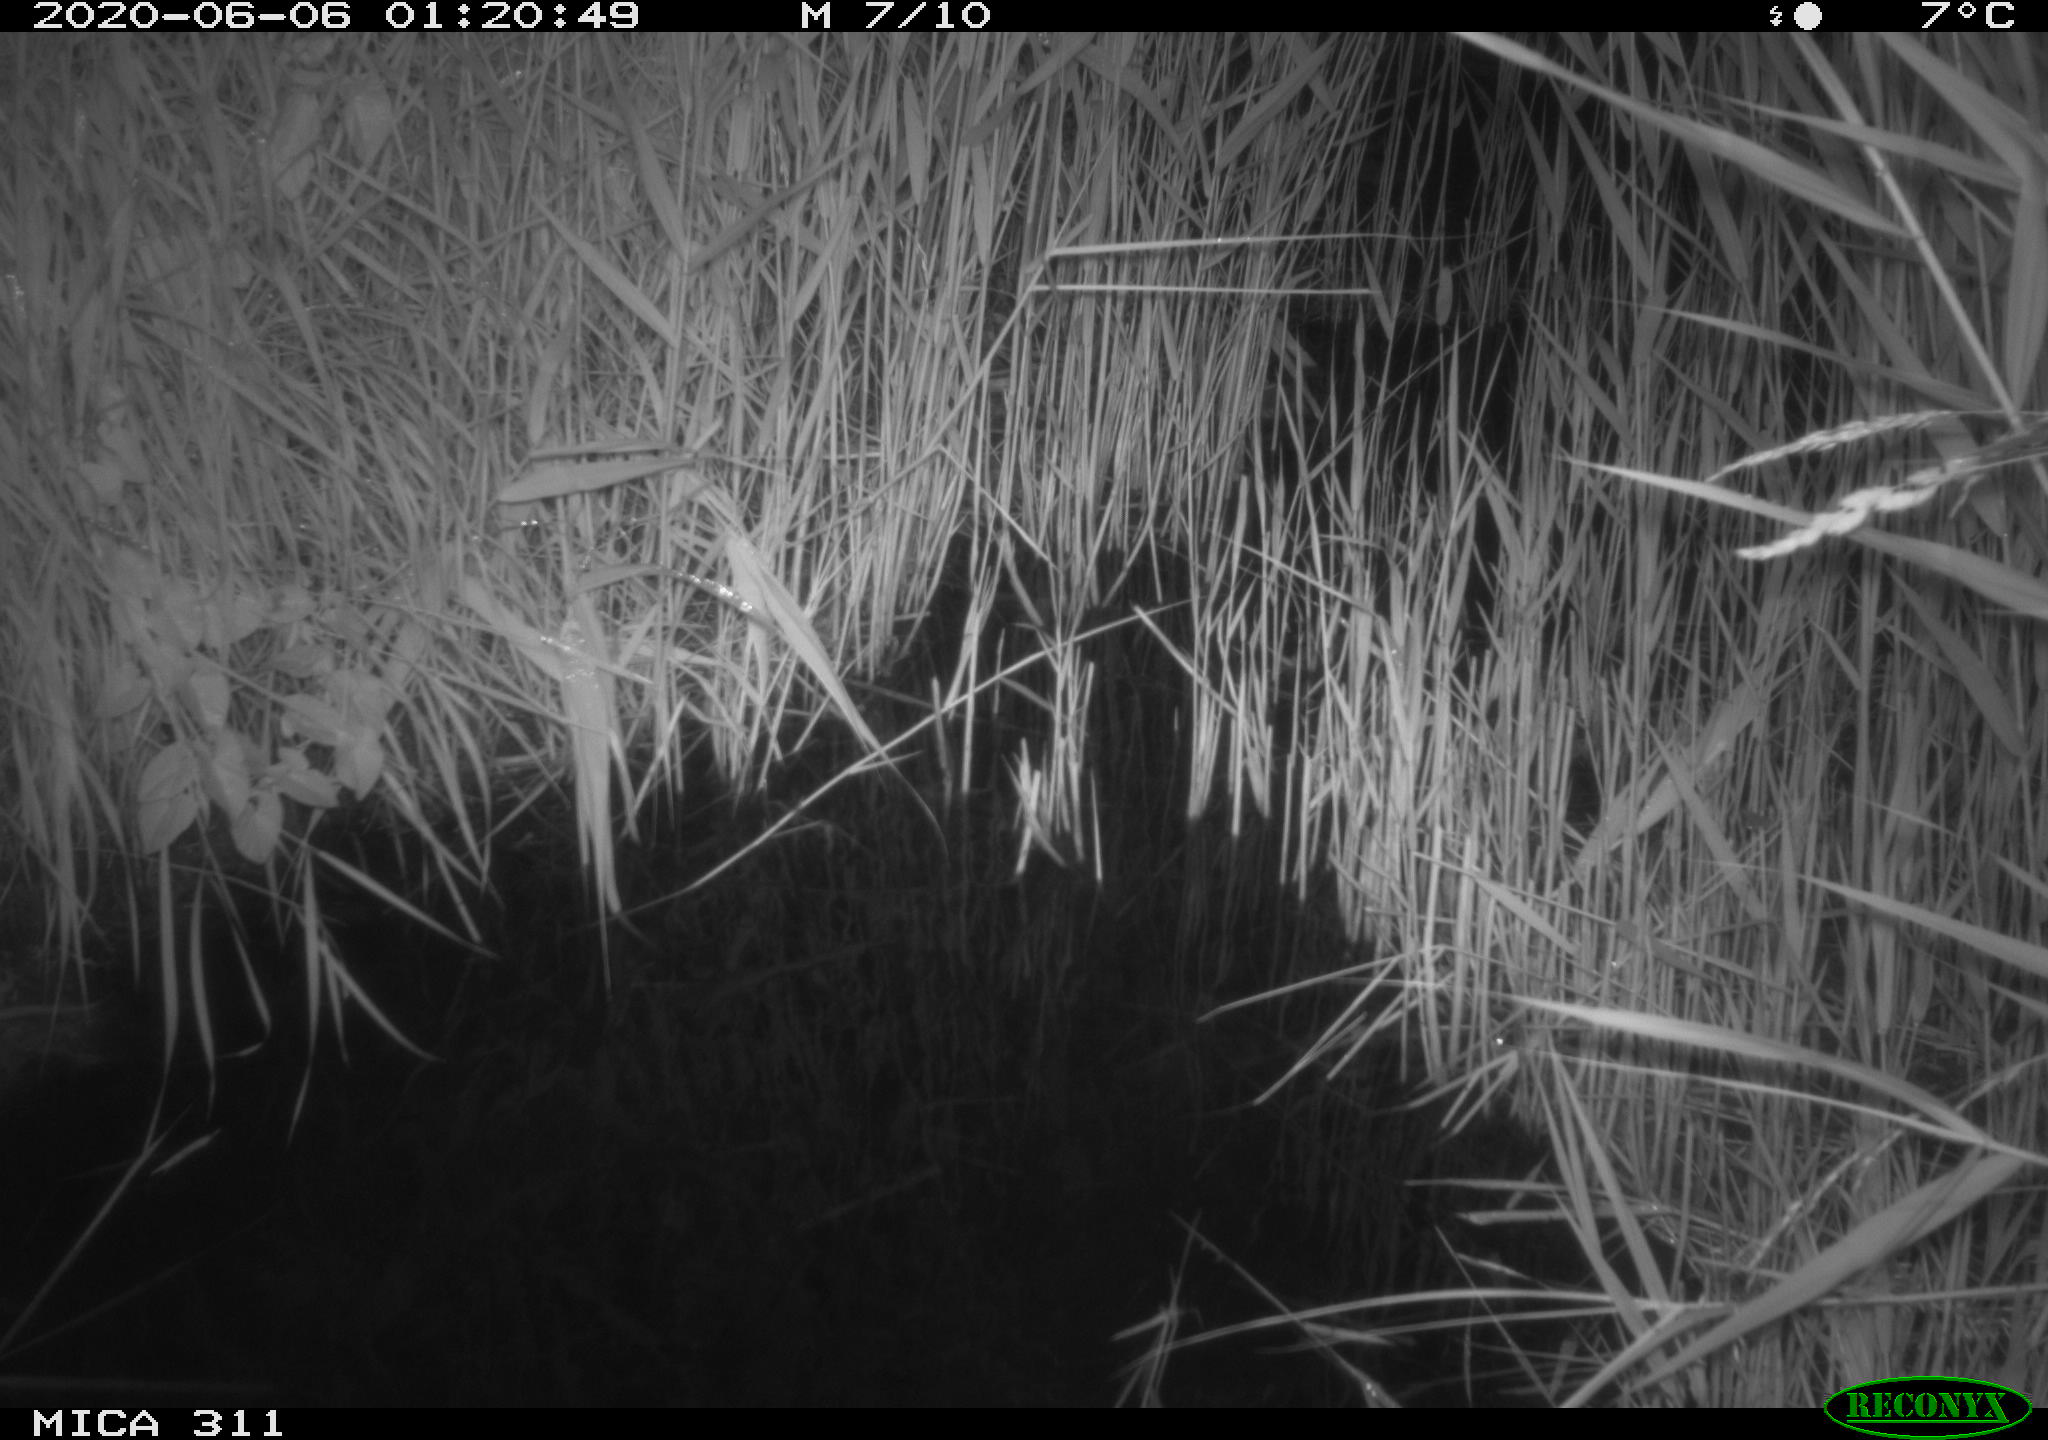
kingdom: Animalia
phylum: Chordata
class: Mammalia
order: Rodentia
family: Muridae
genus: Rattus
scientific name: Rattus norvegicus
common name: Brown rat
